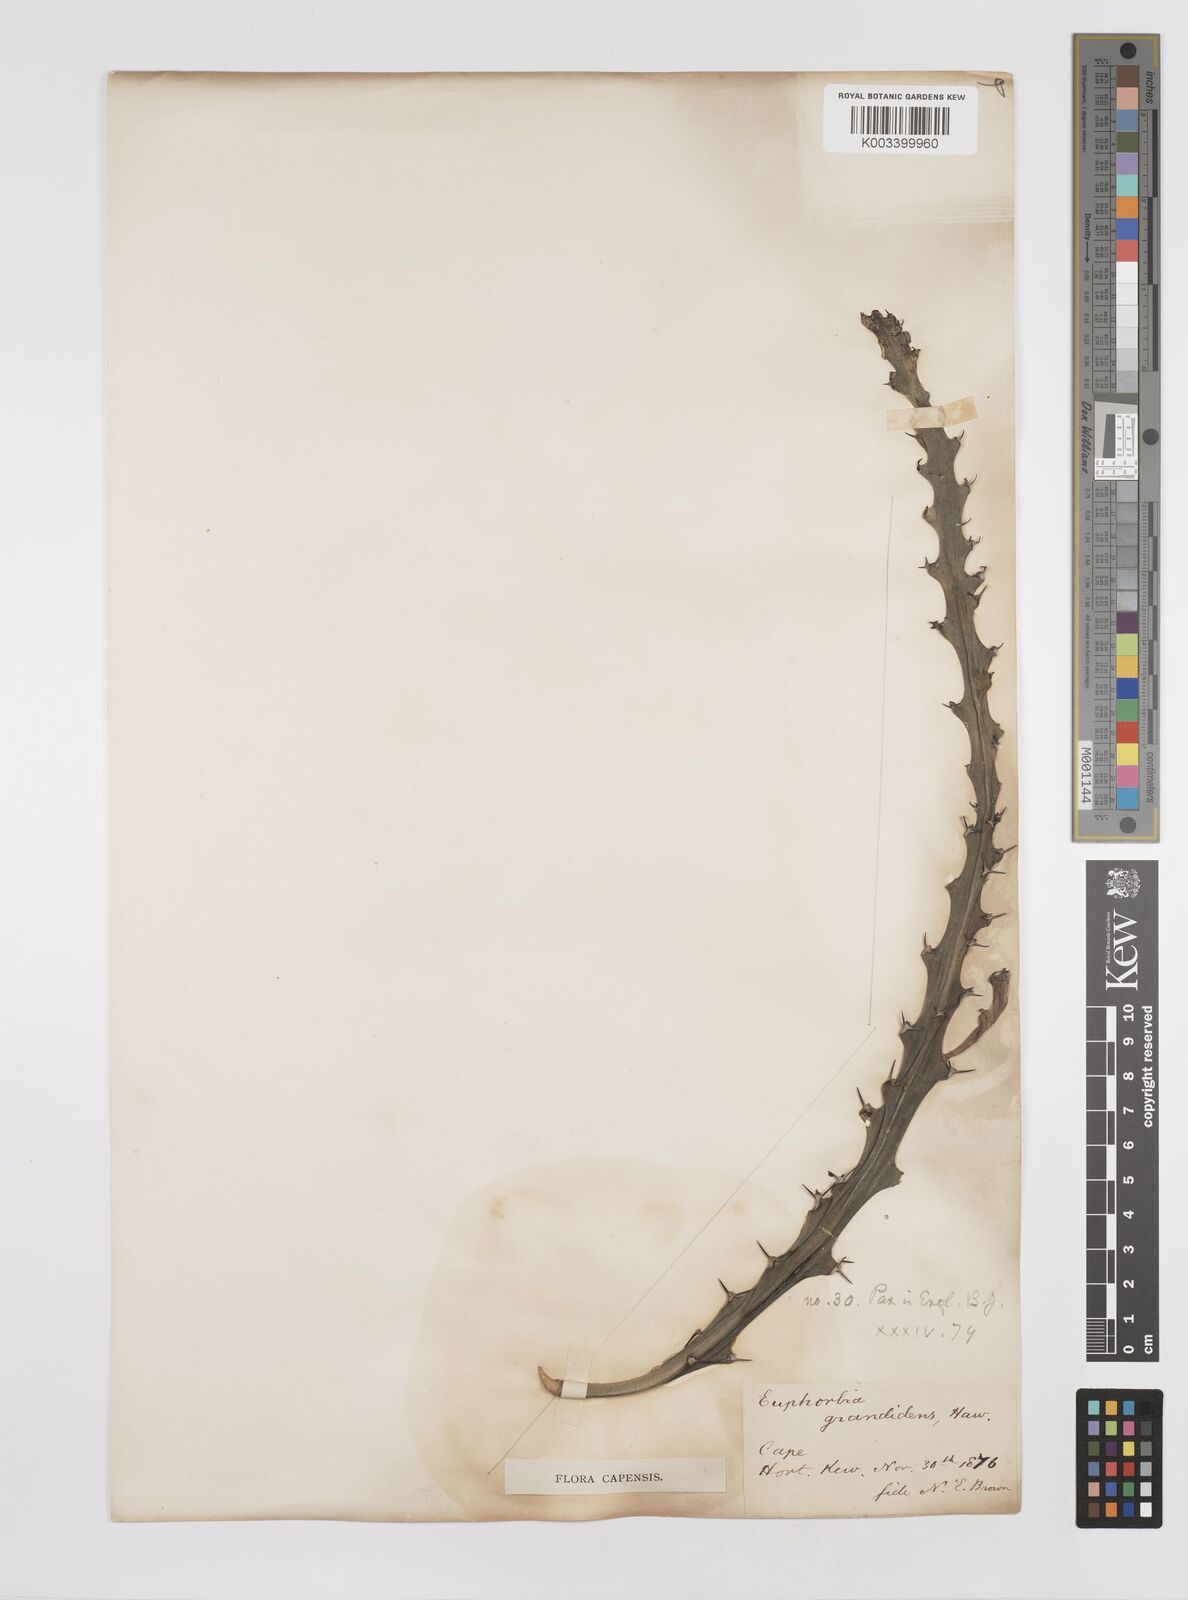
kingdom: Plantae
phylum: Tracheophyta
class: Magnoliopsida
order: Malpighiales
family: Euphorbiaceae
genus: Euphorbia
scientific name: Euphorbia
